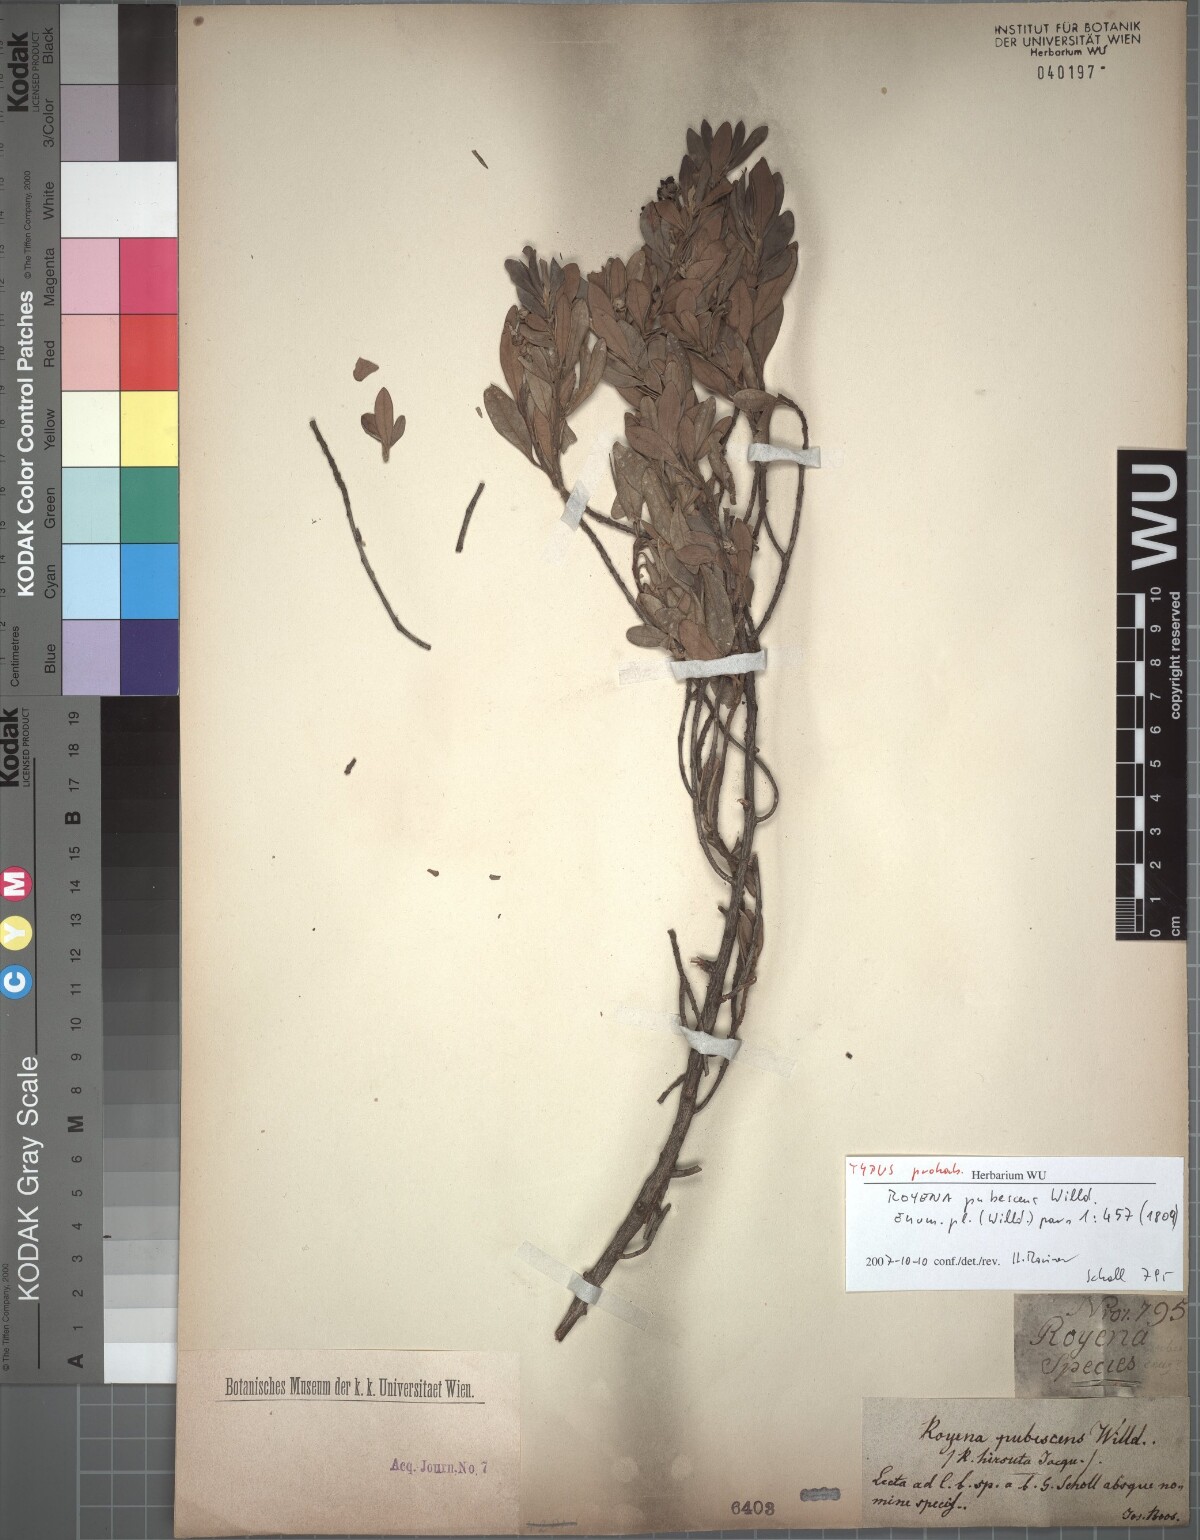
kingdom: Plantae
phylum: Tracheophyta
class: Magnoliopsida
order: Ericales
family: Ebenaceae
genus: Diospyros
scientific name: Diospyros pallens
